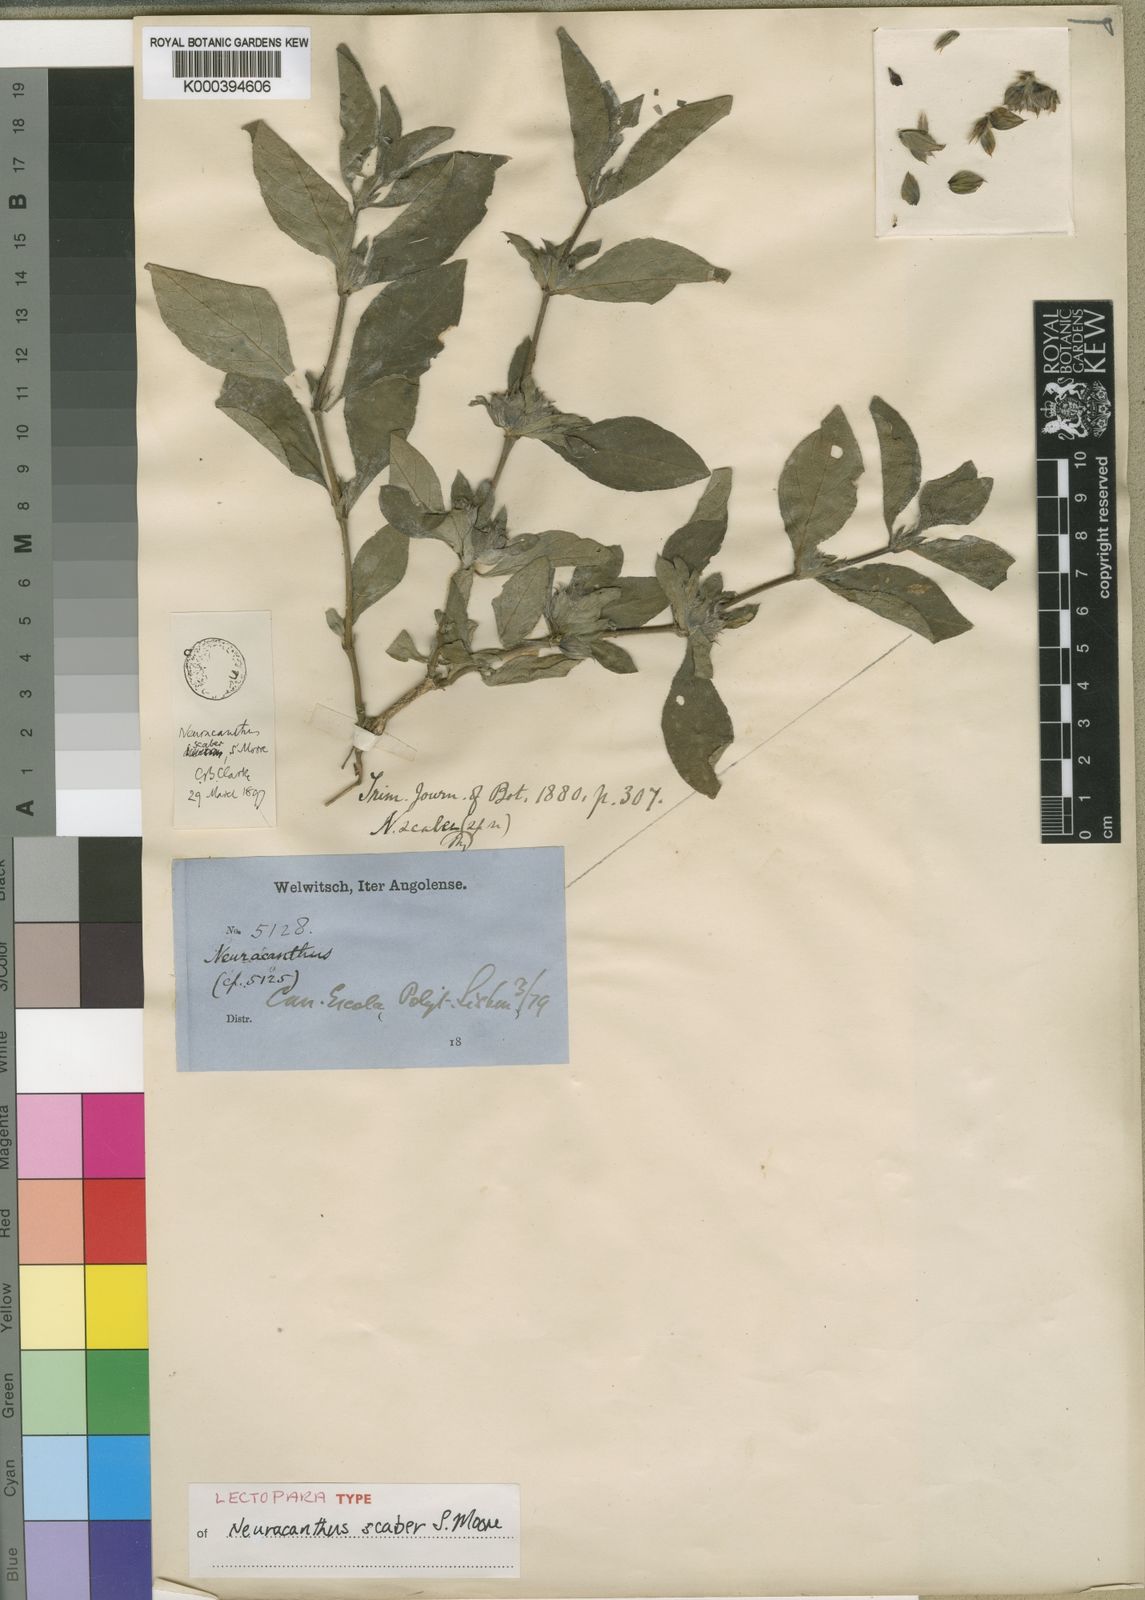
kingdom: Plantae
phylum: Tracheophyta
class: Magnoliopsida
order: Lamiales
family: Acanthaceae
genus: Neuracanthus
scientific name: Neuracanthus scaber
